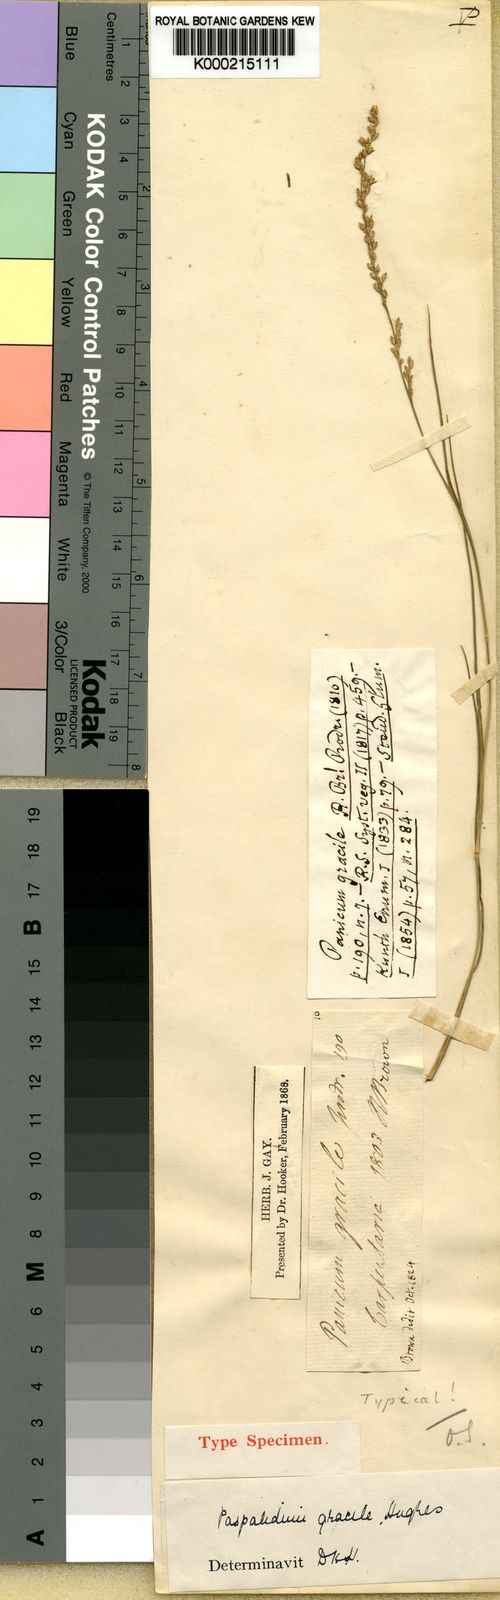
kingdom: Plantae
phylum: Tracheophyta
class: Liliopsida
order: Poales
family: Poaceae
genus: Setaria
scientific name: Setaria brownii
